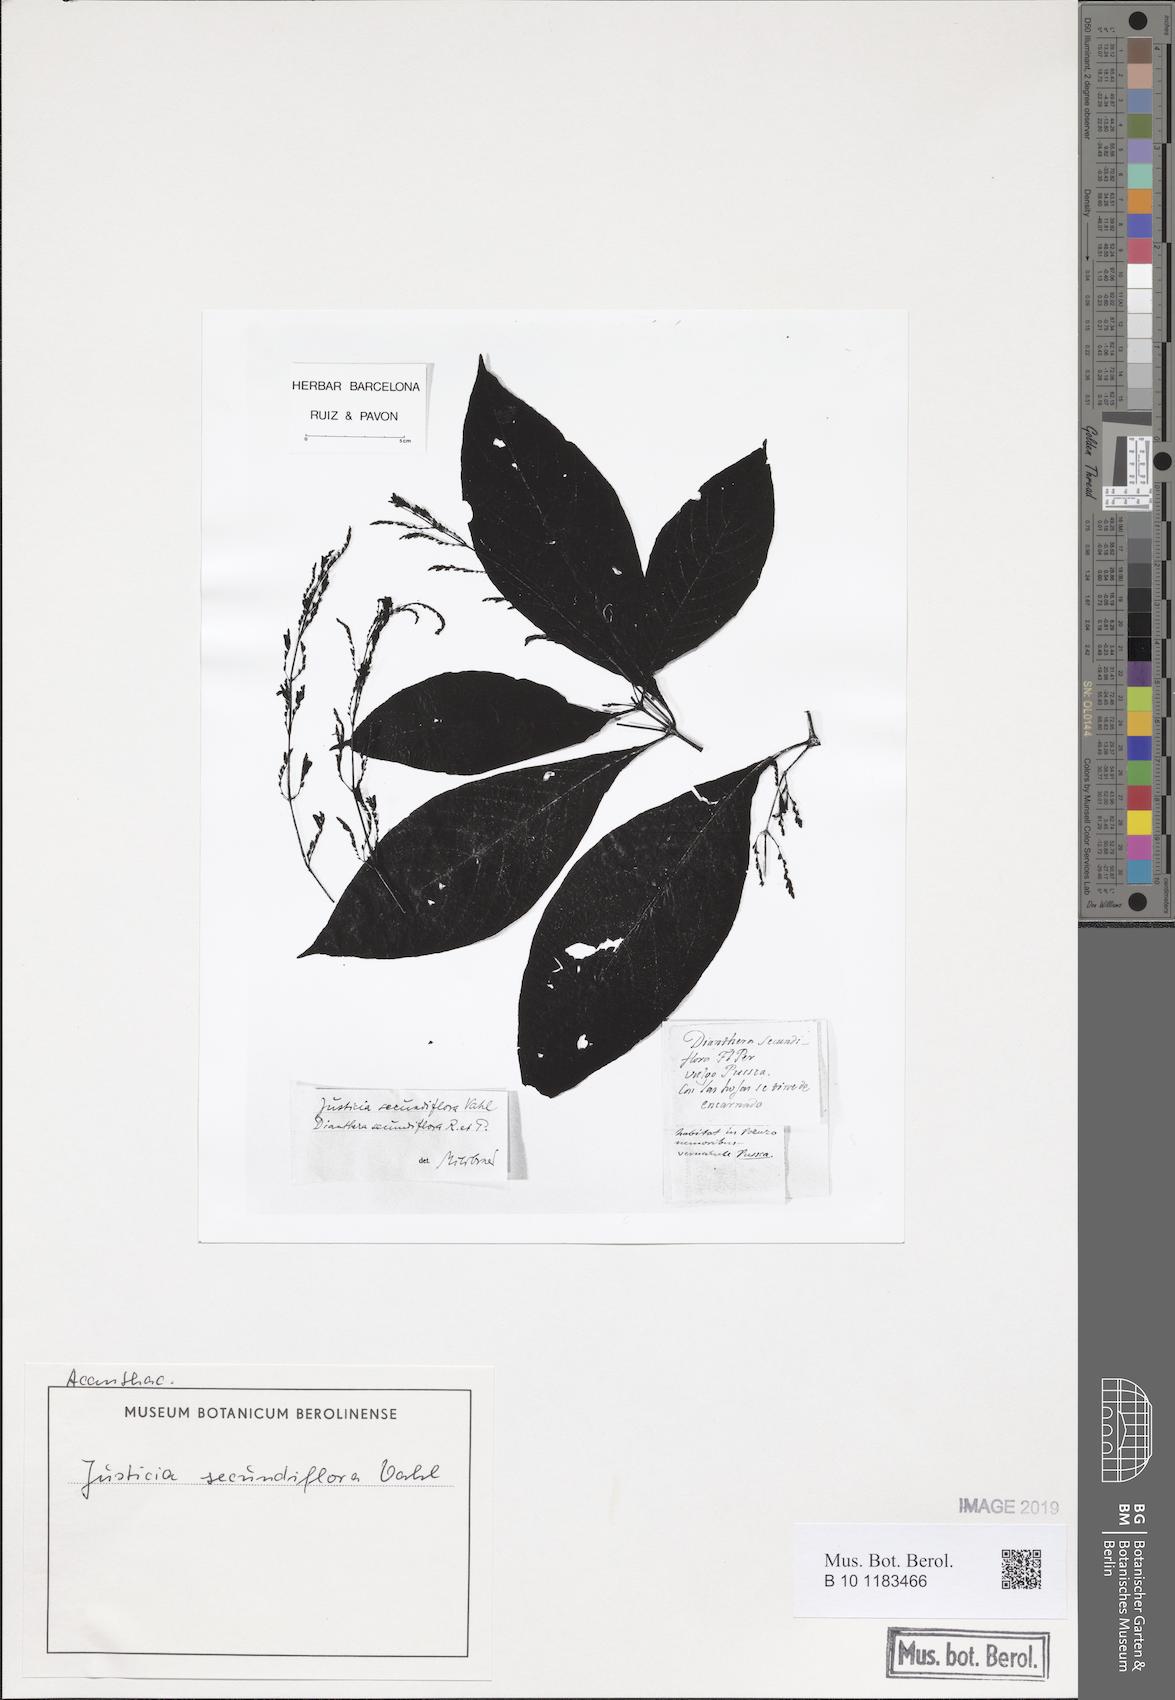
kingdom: Plantae
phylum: Tracheophyta
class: Magnoliopsida
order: Lamiales
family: Acanthaceae
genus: Dianthera
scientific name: Dianthera secundiflora
